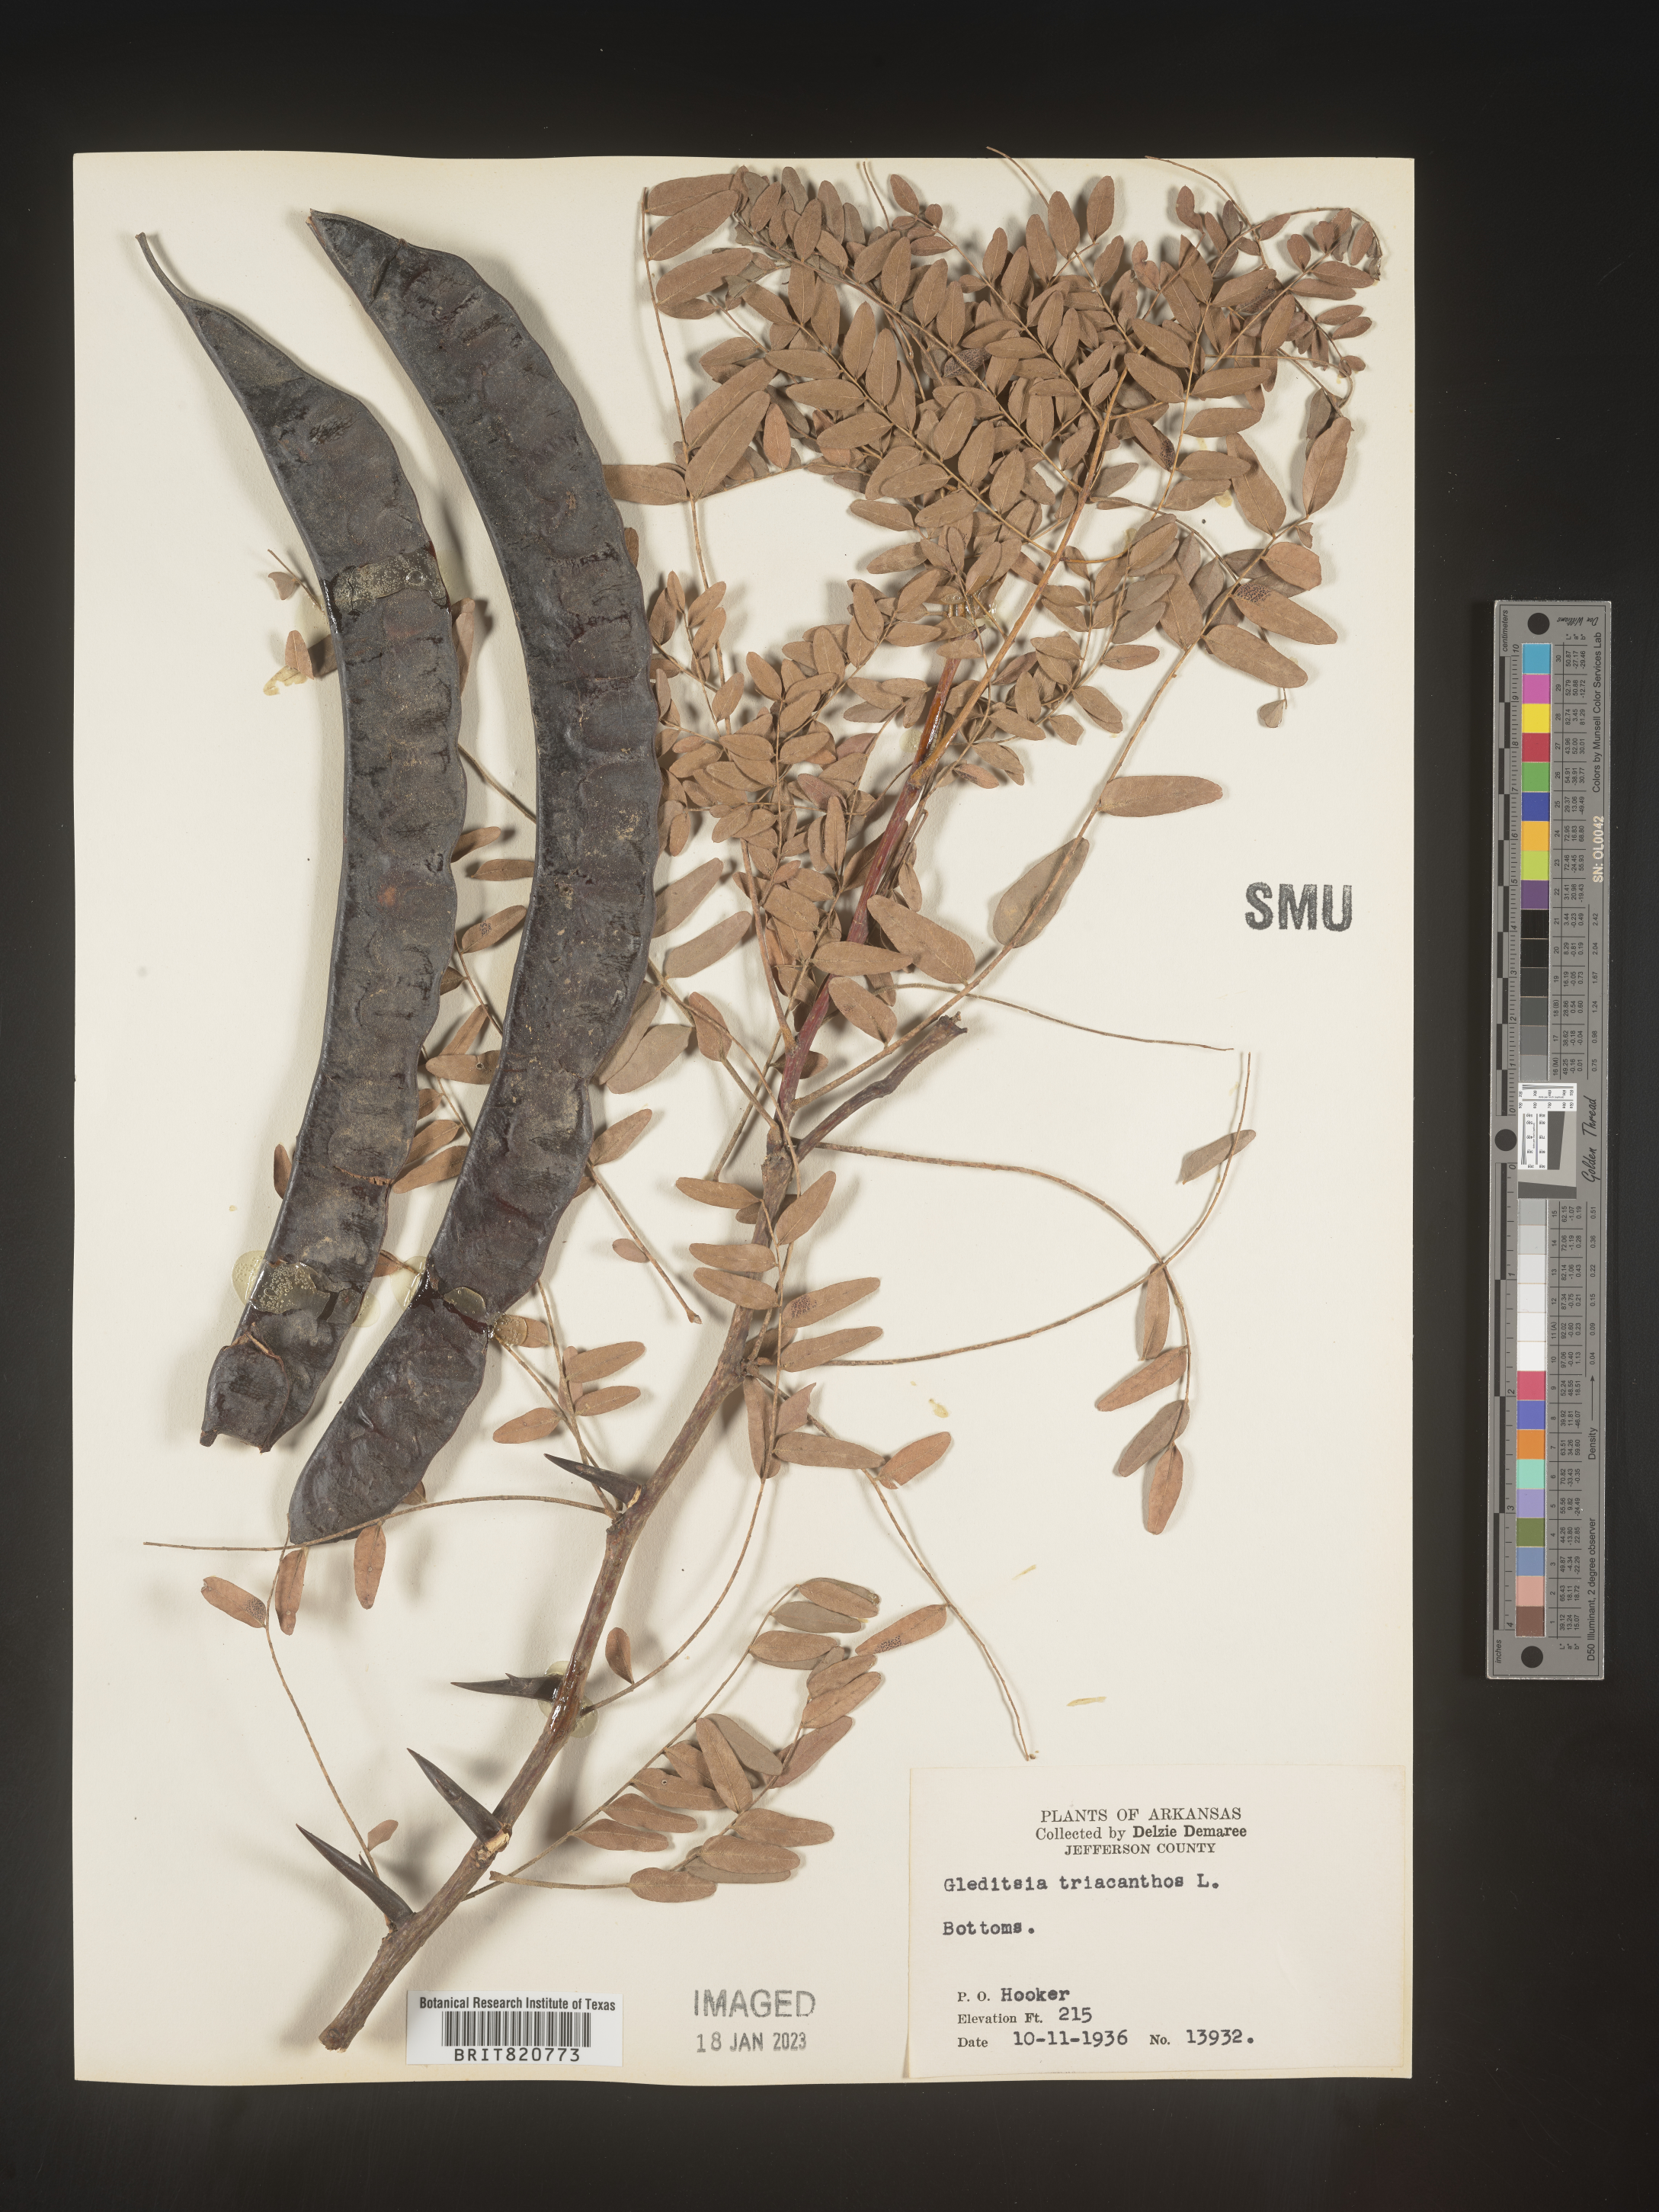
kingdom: Plantae
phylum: Tracheophyta
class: Magnoliopsida
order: Fabales
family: Fabaceae
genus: Gleditsia
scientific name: Gleditsia triacanthos
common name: Common honeylocust
